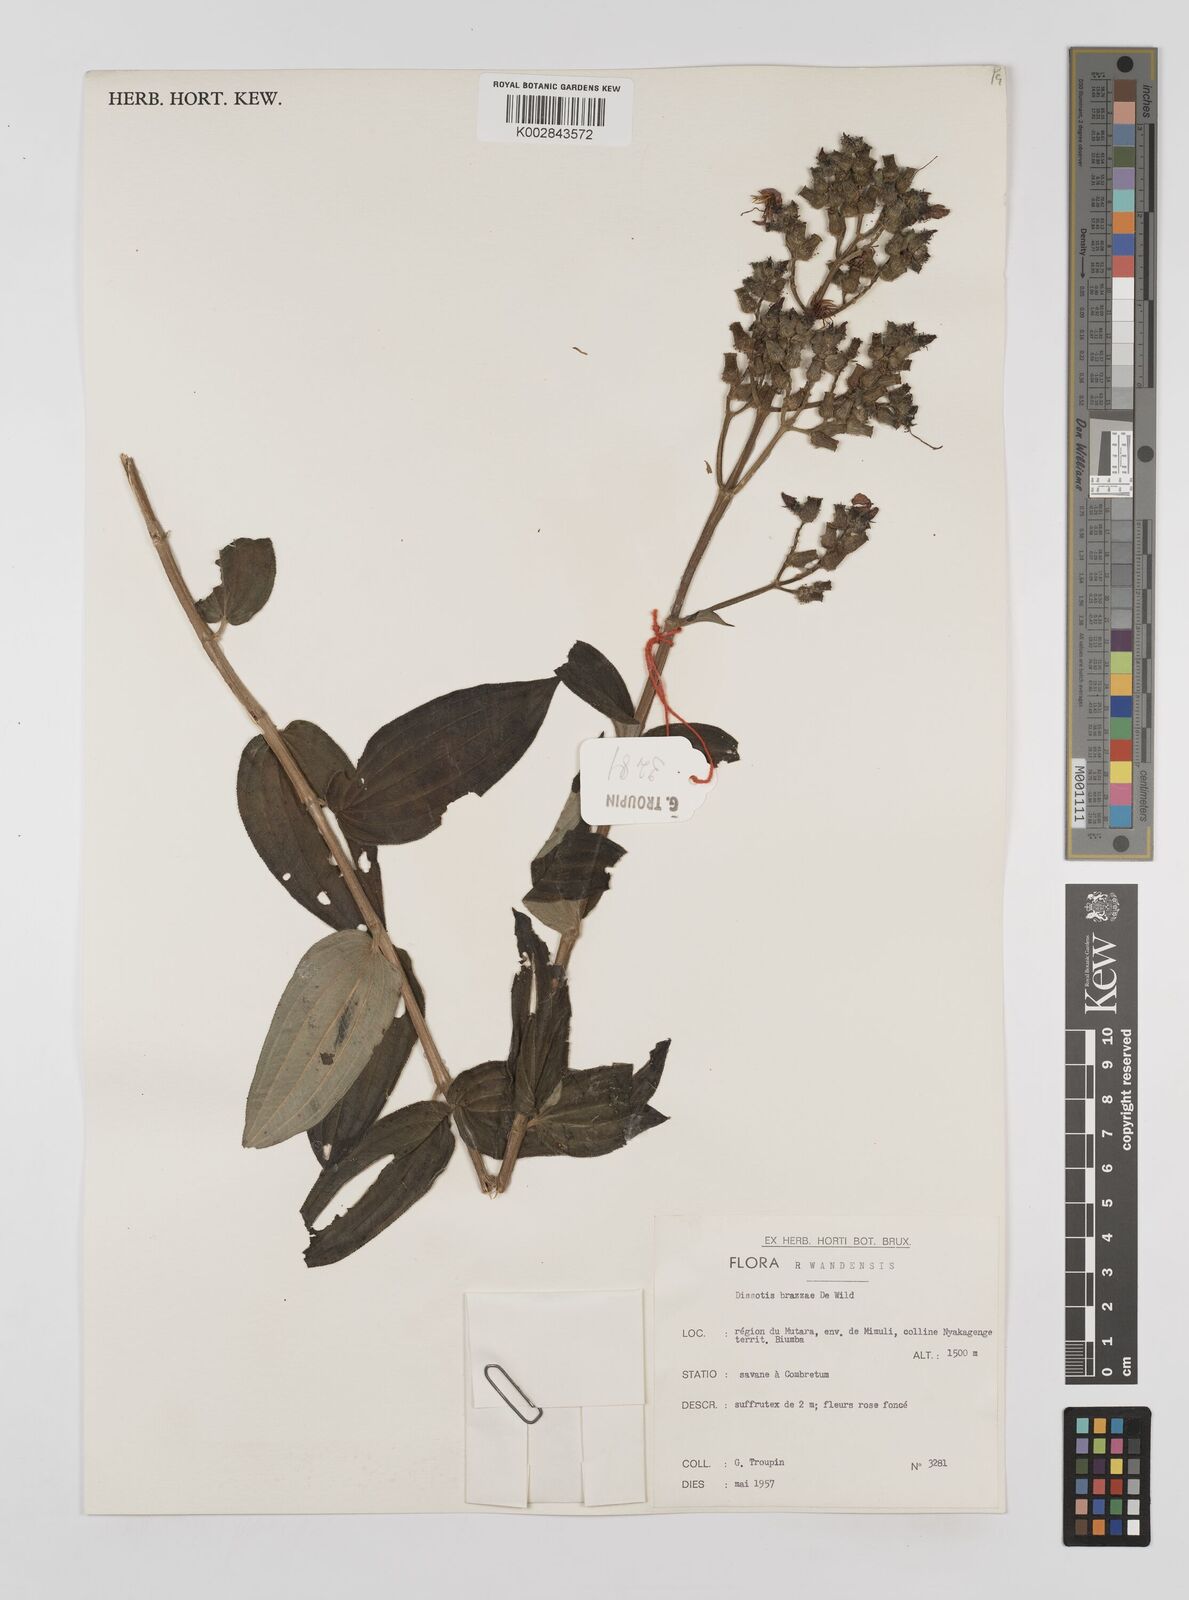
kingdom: Plantae
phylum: Tracheophyta
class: Magnoliopsida
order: Myrtales
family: Melastomataceae
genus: Dupineta
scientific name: Dupineta brazzae
